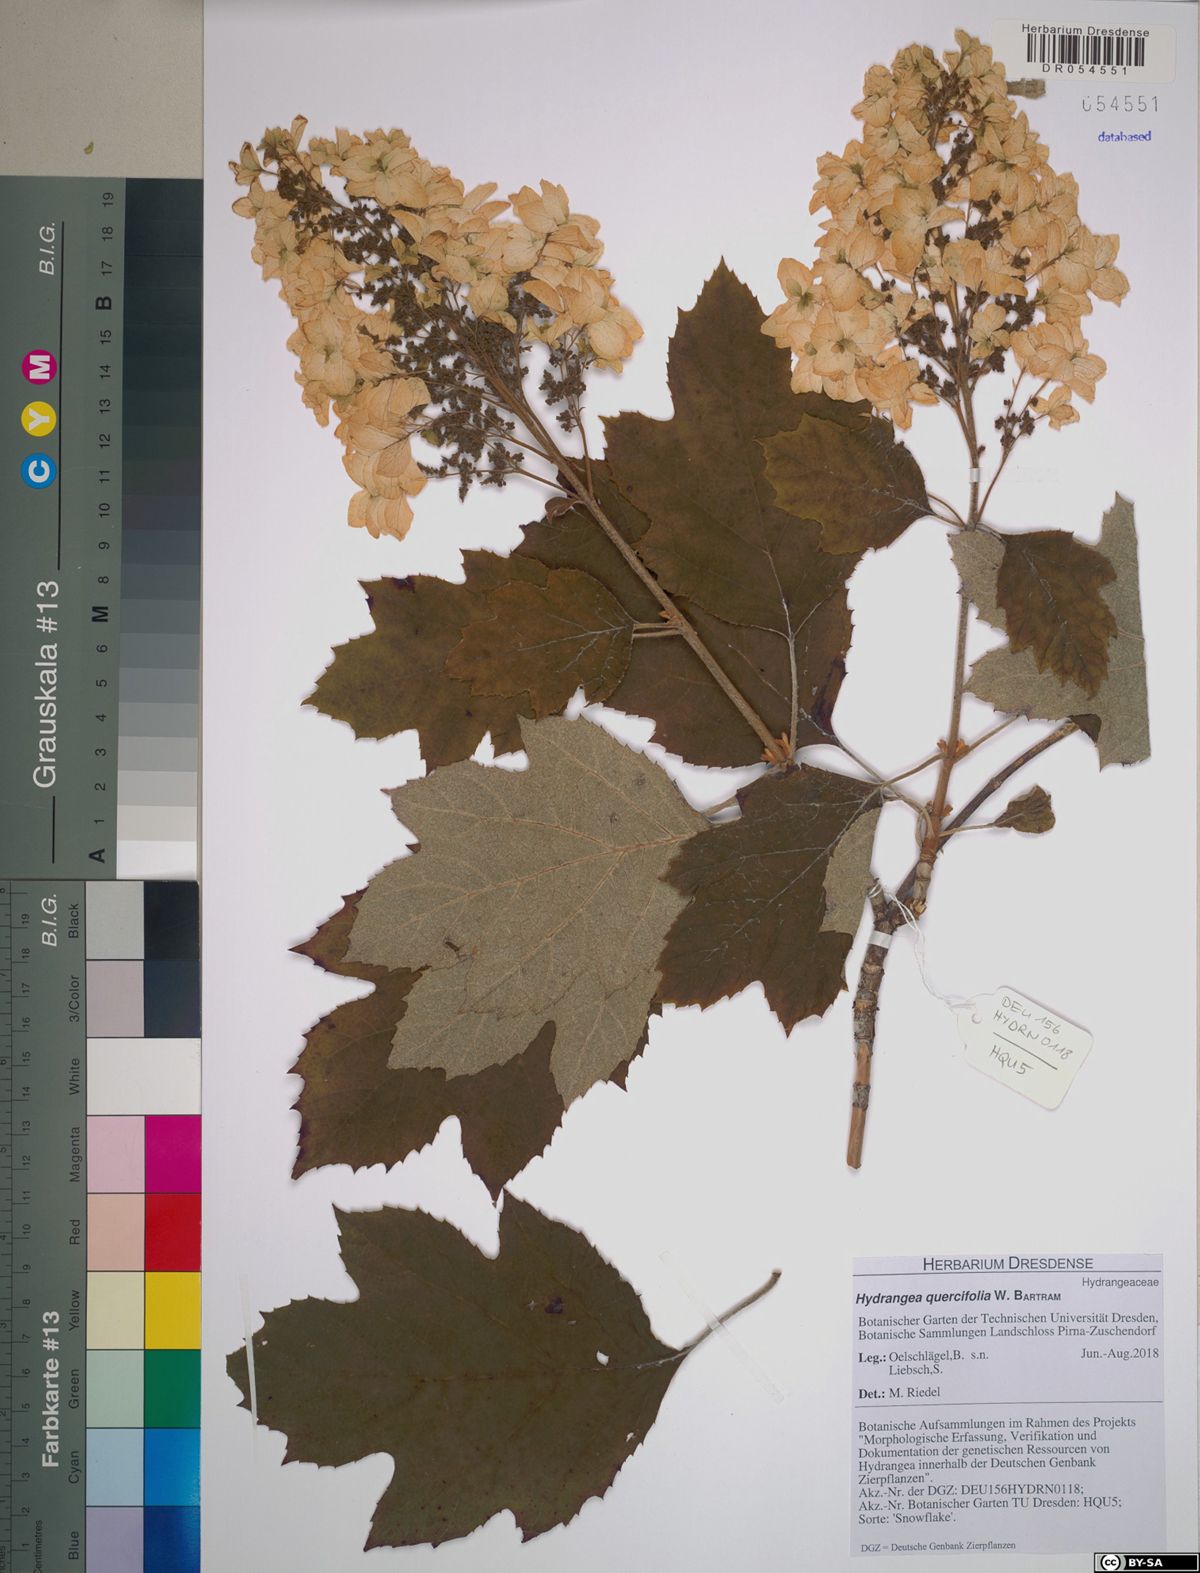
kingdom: Plantae
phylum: Tracheophyta
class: Magnoliopsida
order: Cornales
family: Hydrangeaceae
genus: Hydrangea
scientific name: Hydrangea quercifolia
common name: Oak-leaf hydrangea
